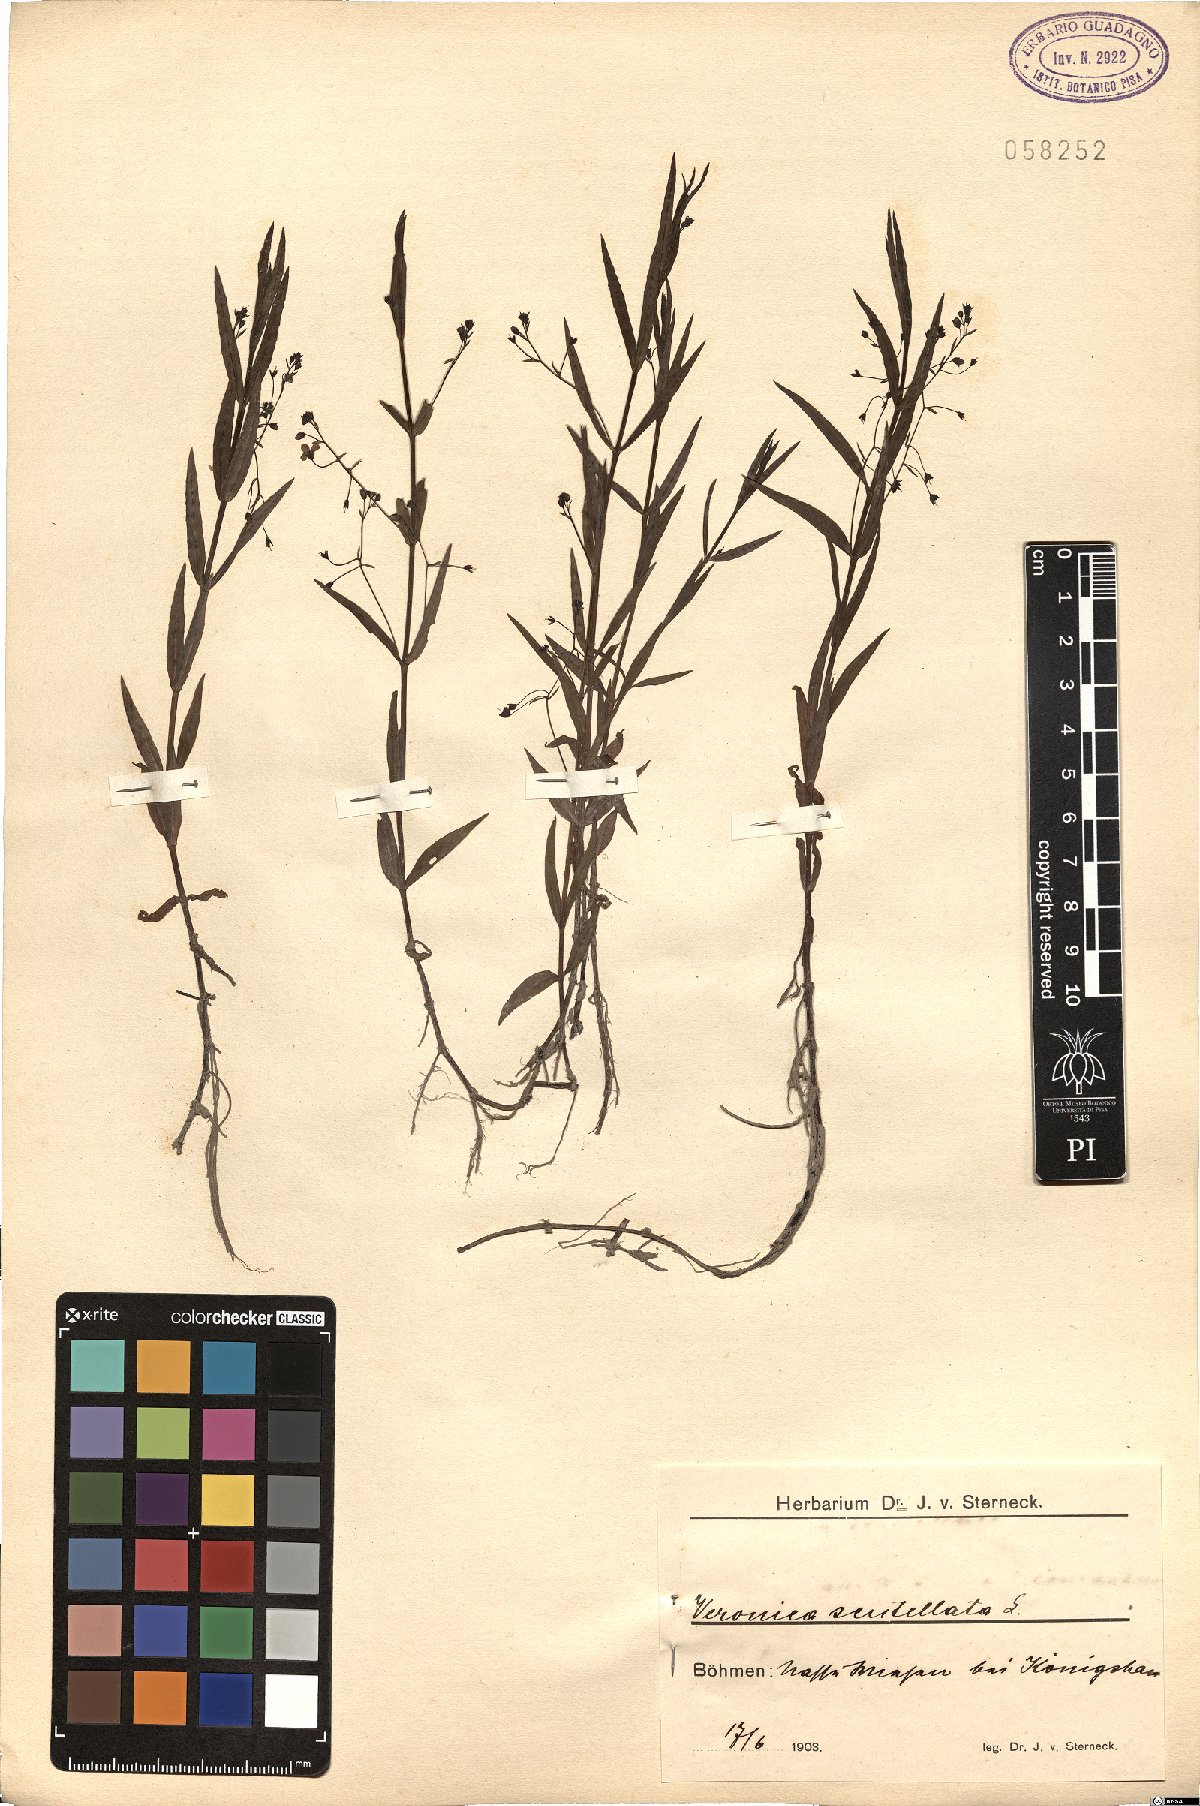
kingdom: Plantae
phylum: Tracheophyta
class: Magnoliopsida
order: Lamiales
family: Plantaginaceae
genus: Veronica
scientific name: Veronica scutellata
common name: Marsh speedwell
